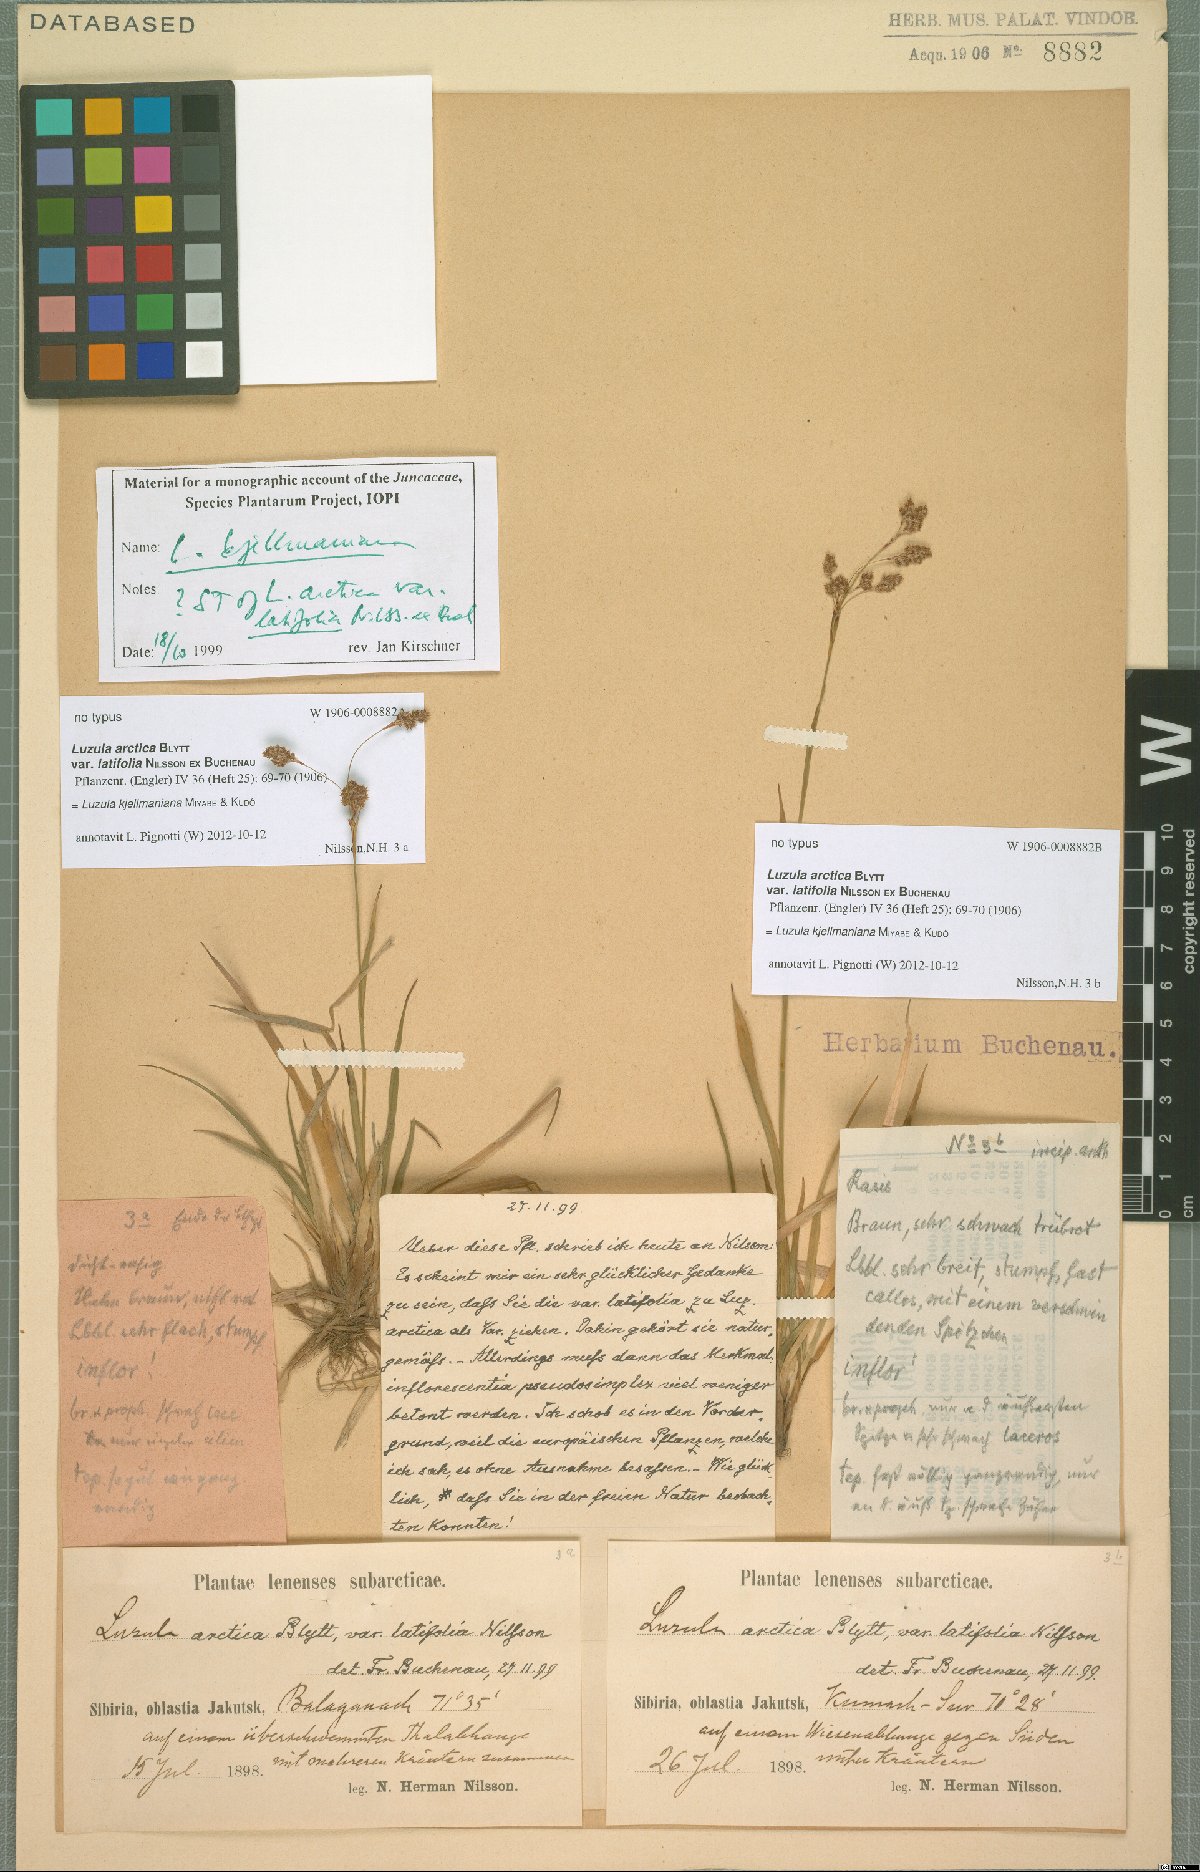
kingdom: Plantae
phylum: Tracheophyta
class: Liliopsida
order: Poales
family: Juncaceae
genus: Luzula
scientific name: Luzula kjellmaniana
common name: Kjellman's woodrush
